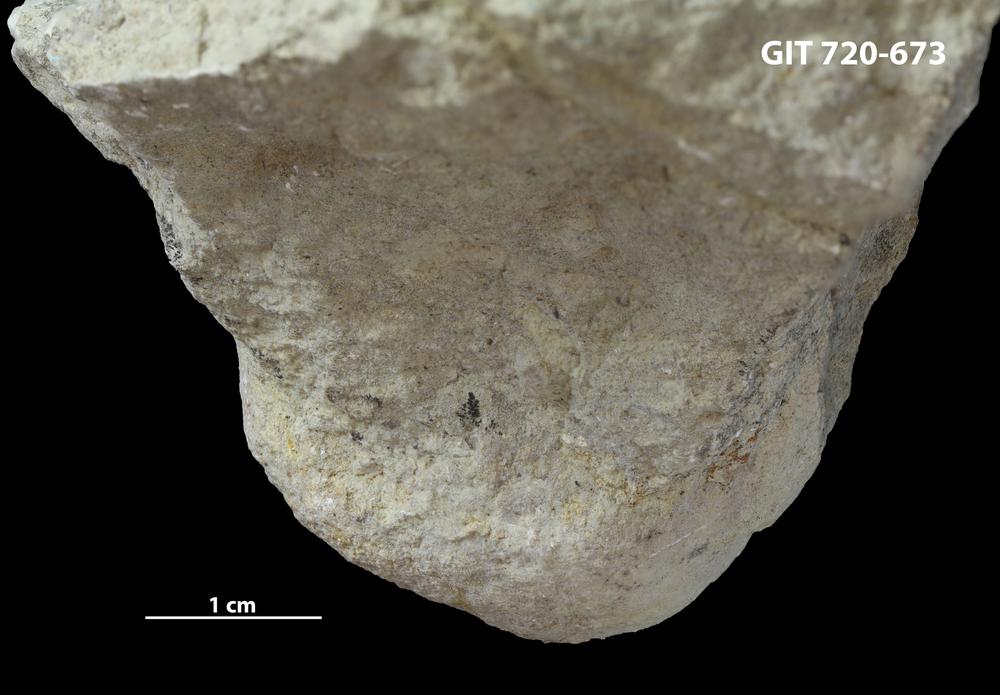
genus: Conichnus
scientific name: Conichnus
